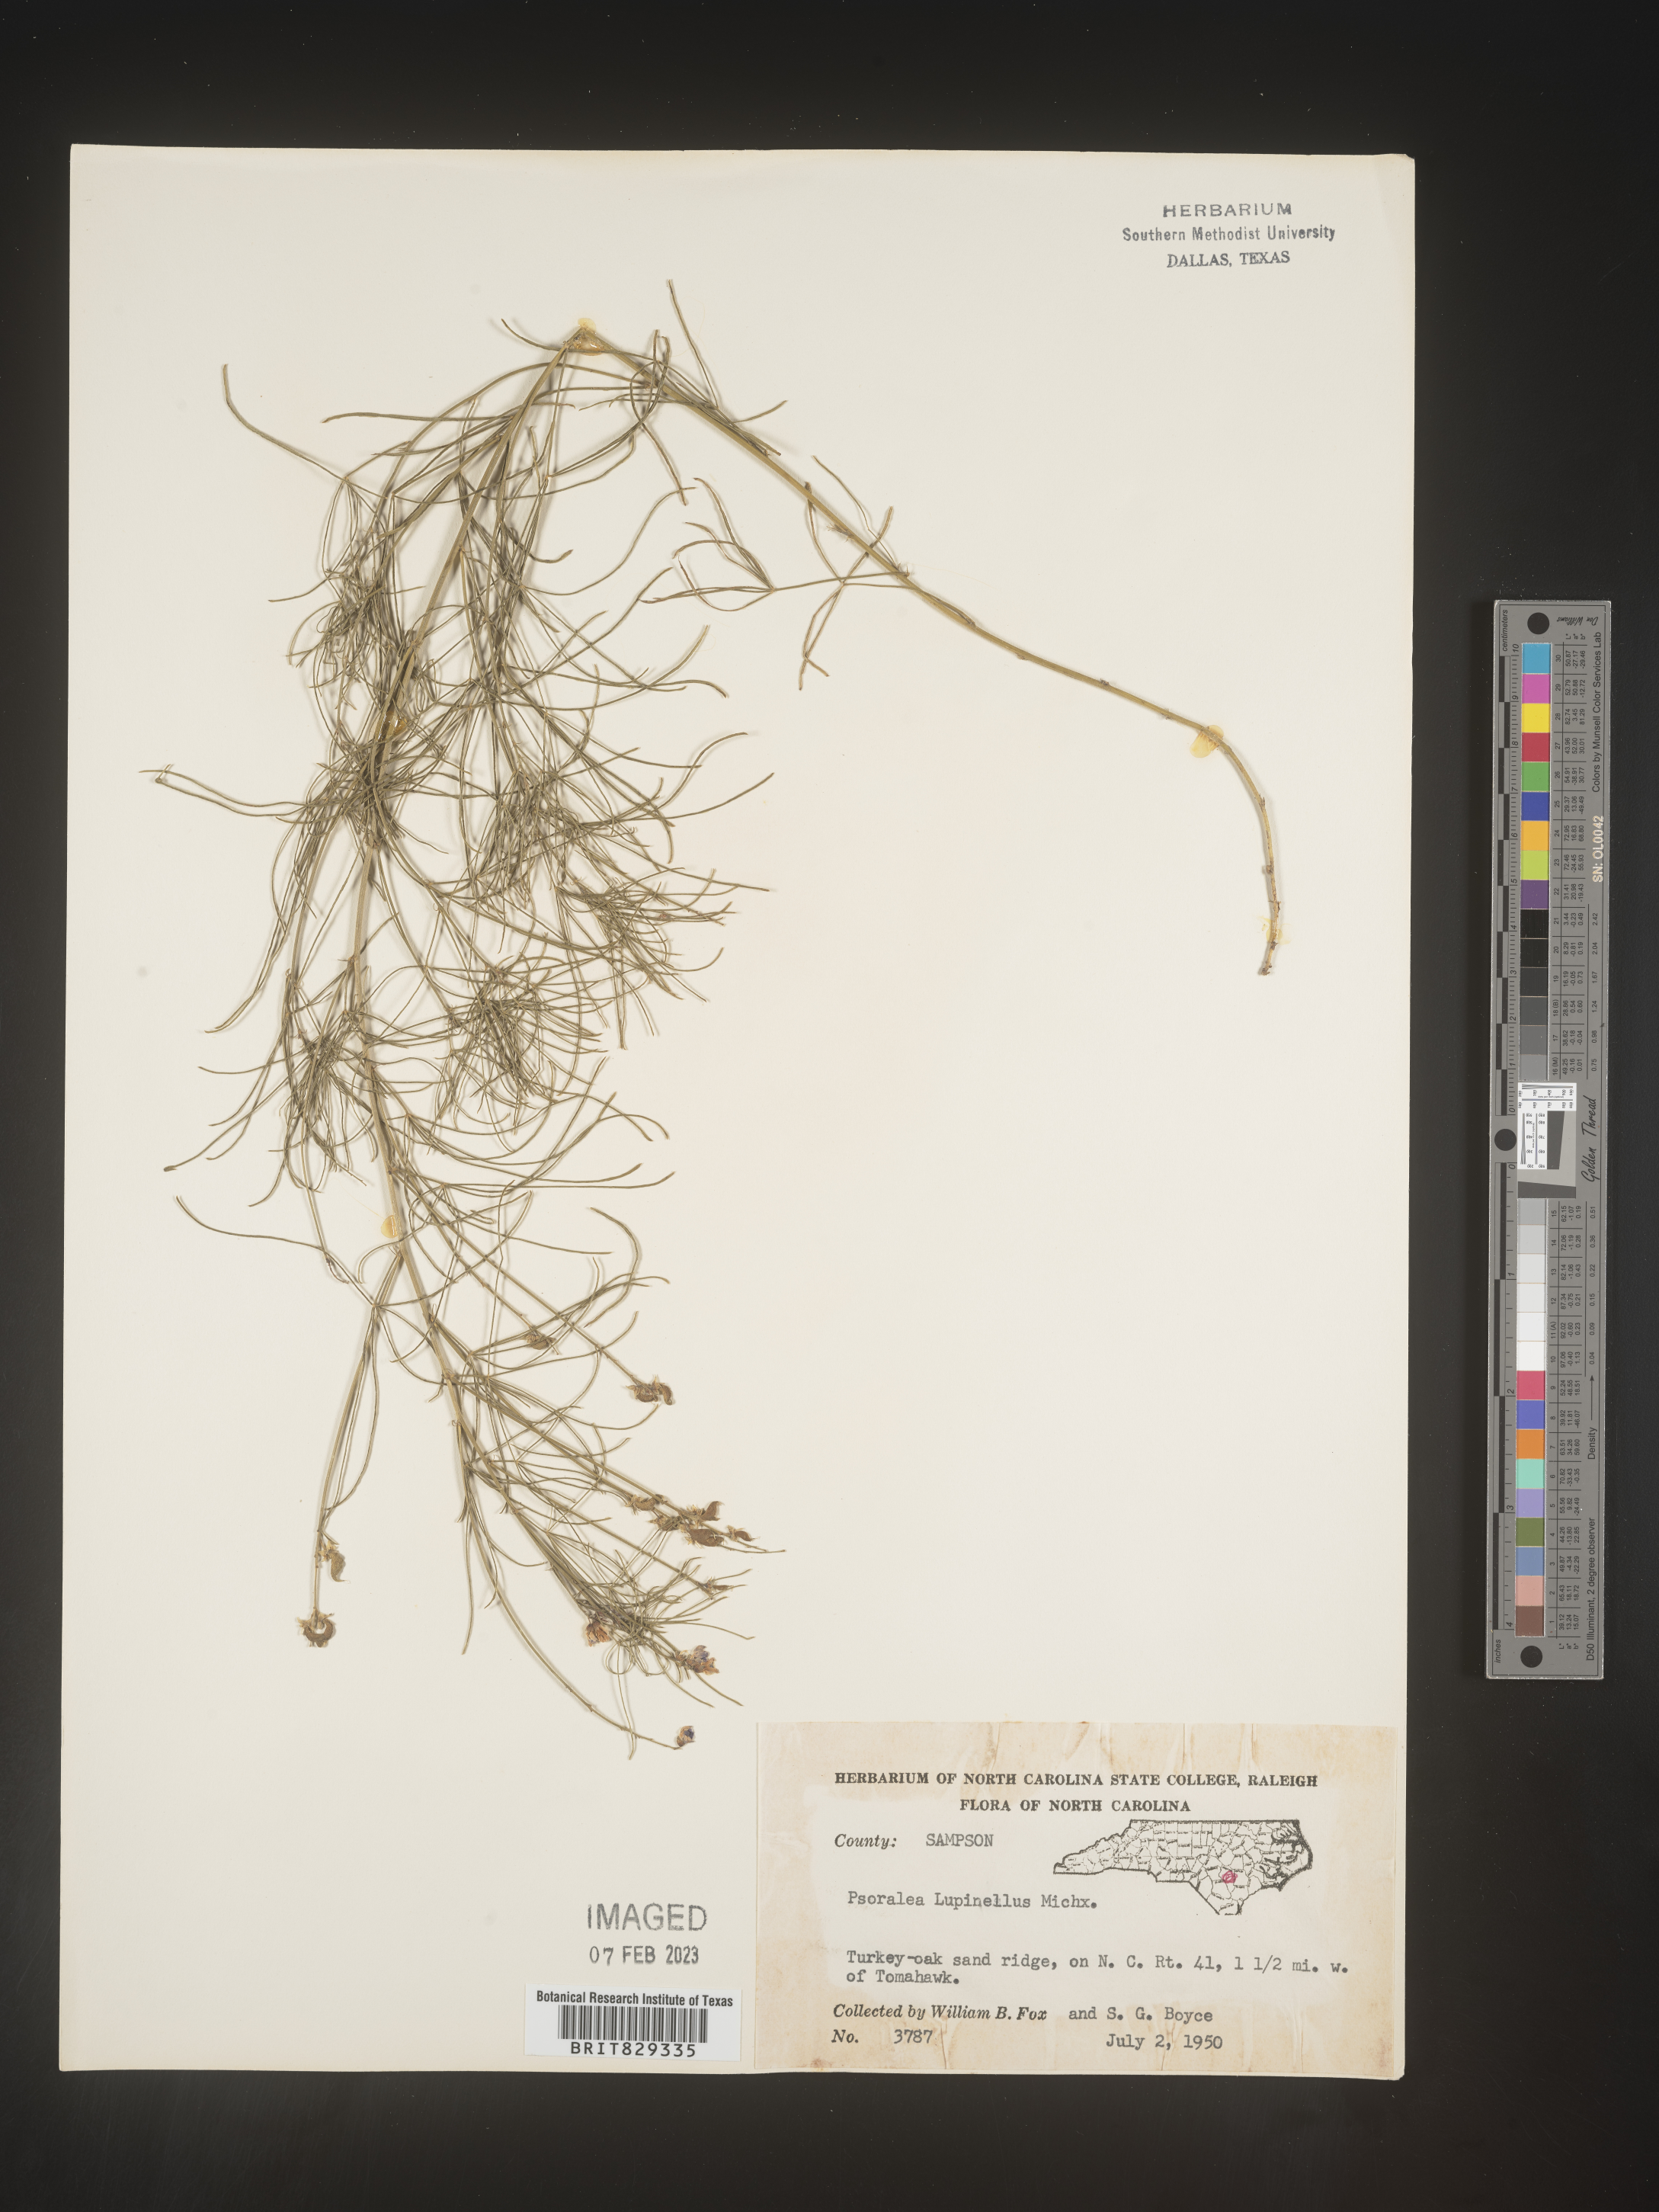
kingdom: Plantae
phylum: Tracheophyta
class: Magnoliopsida
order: Fabales
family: Fabaceae
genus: Psoralea
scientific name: Psoralea
